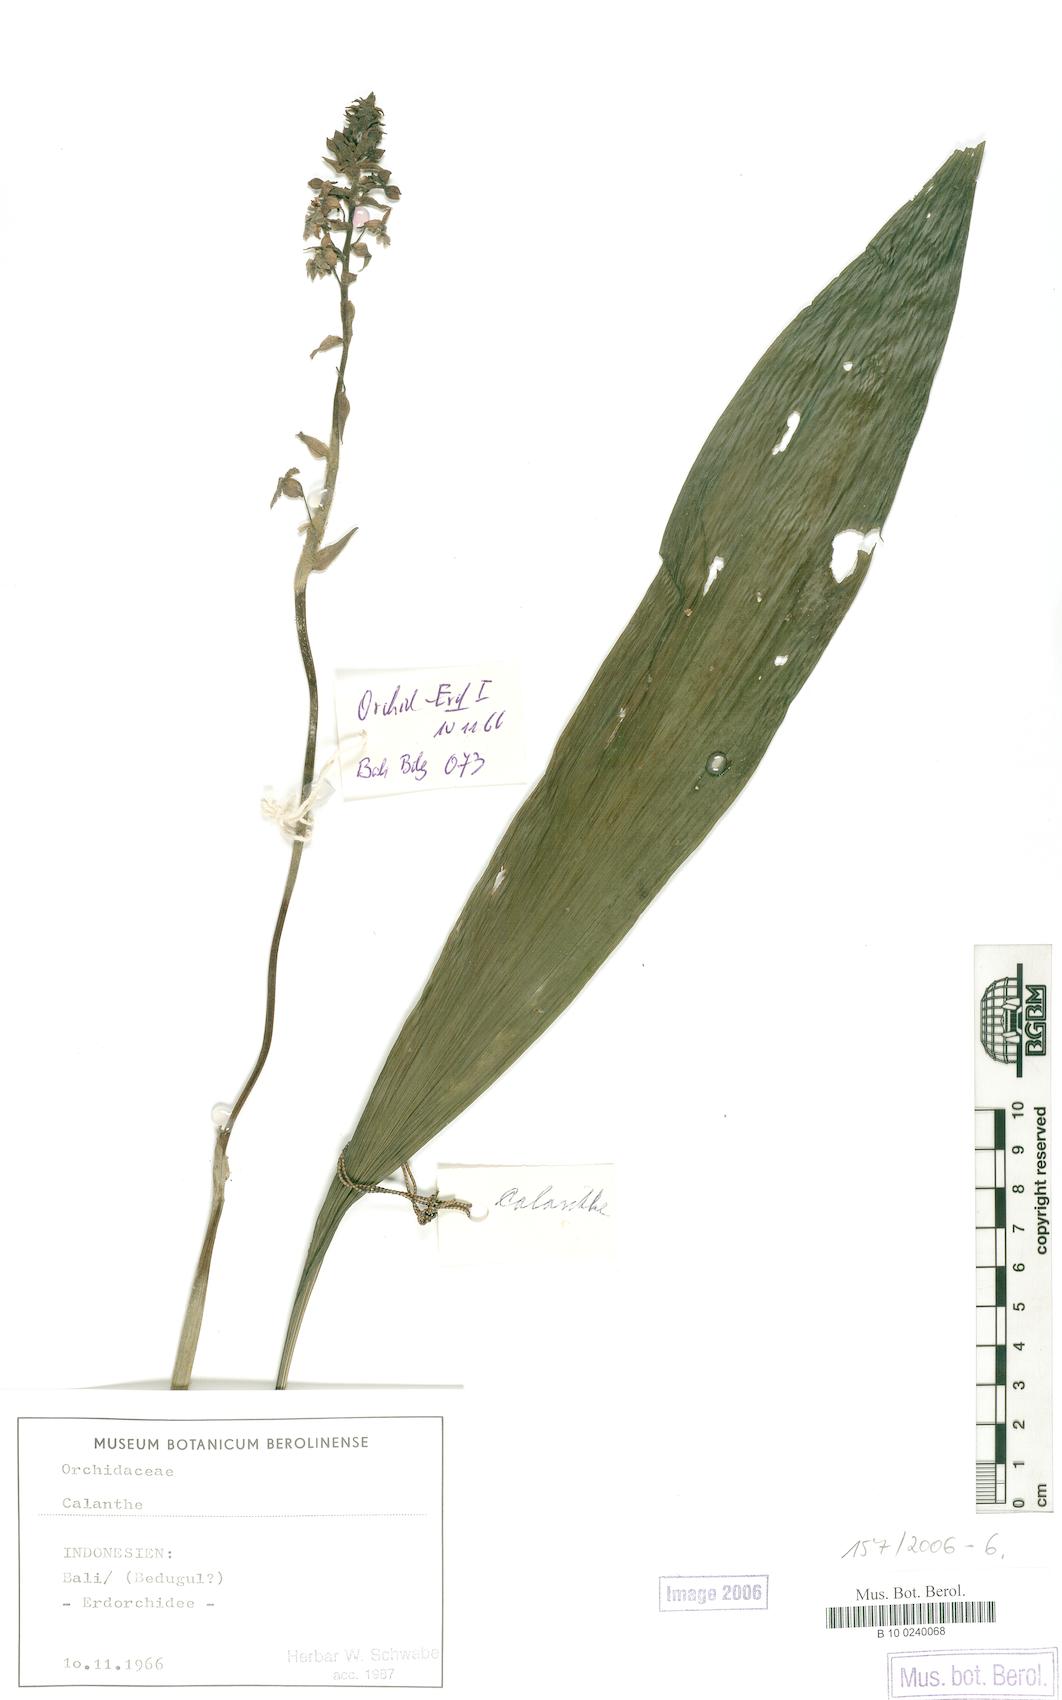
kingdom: Plantae
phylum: Tracheophyta
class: Liliopsida
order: Asparagales
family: Orchidaceae
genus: Calanthe
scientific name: Calanthe
